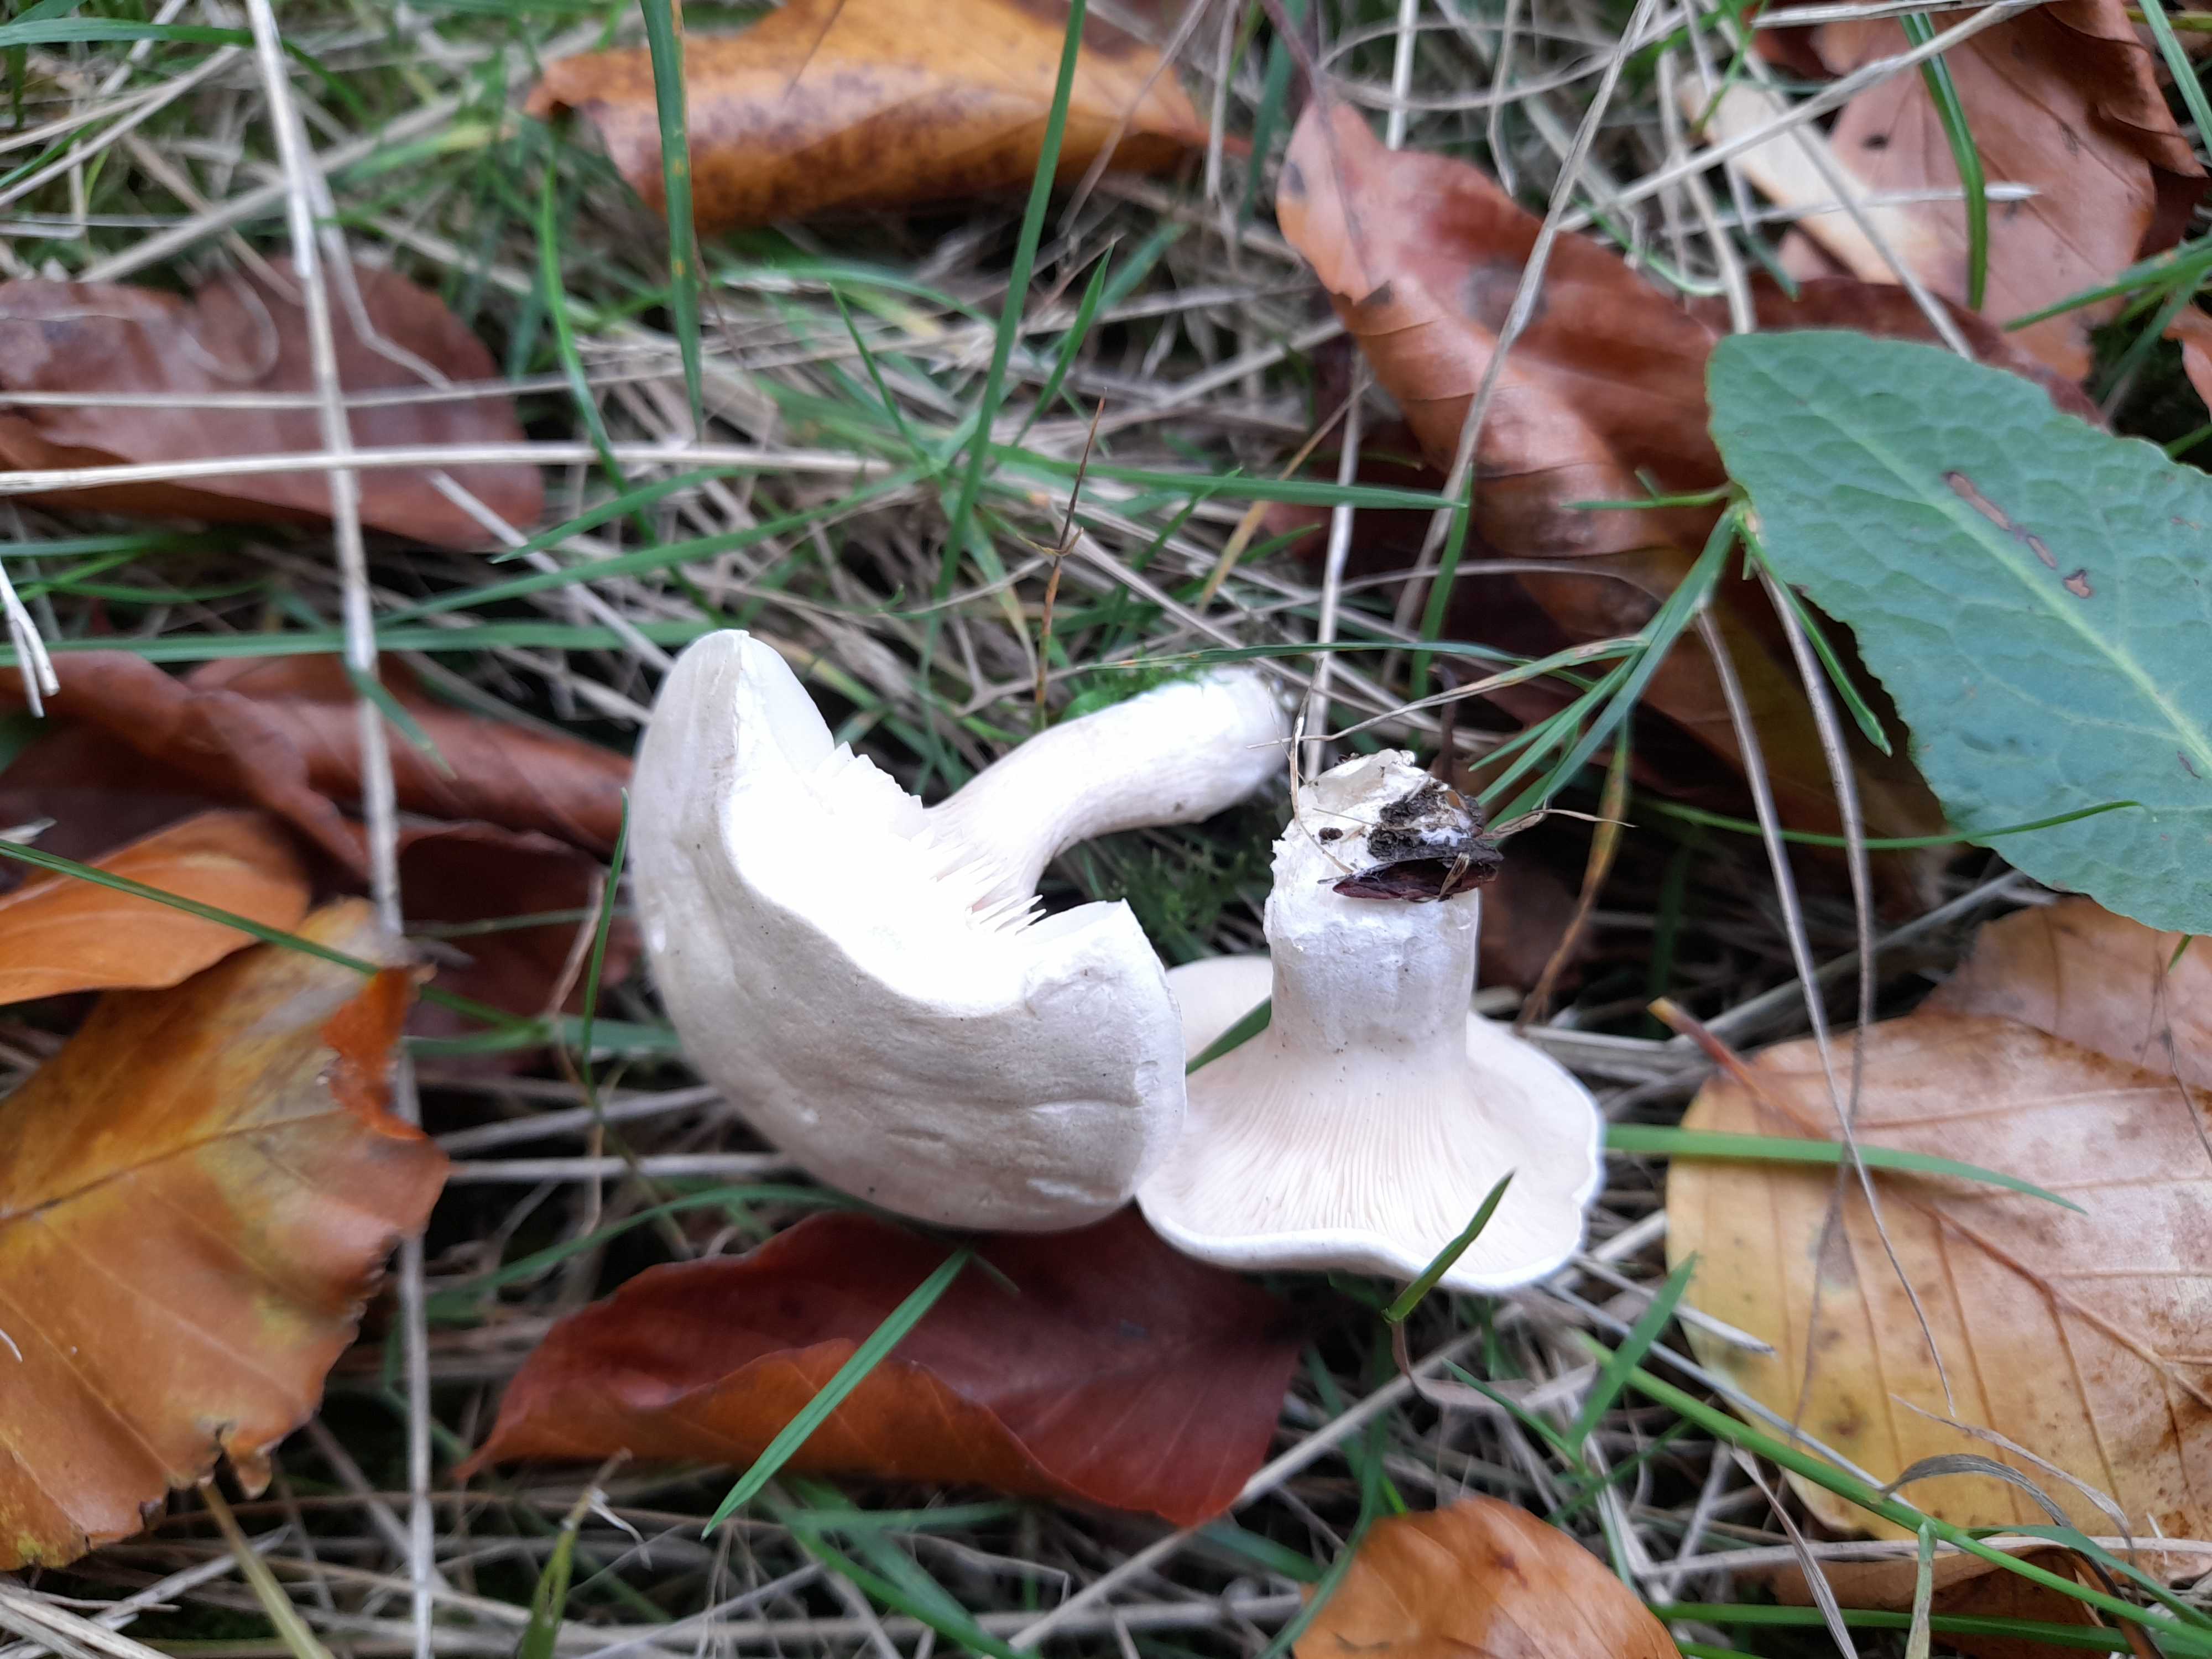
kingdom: Fungi
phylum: Basidiomycota
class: Agaricomycetes
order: Agaricales
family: Entolomataceae
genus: Clitopilus
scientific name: Clitopilus prunulus
